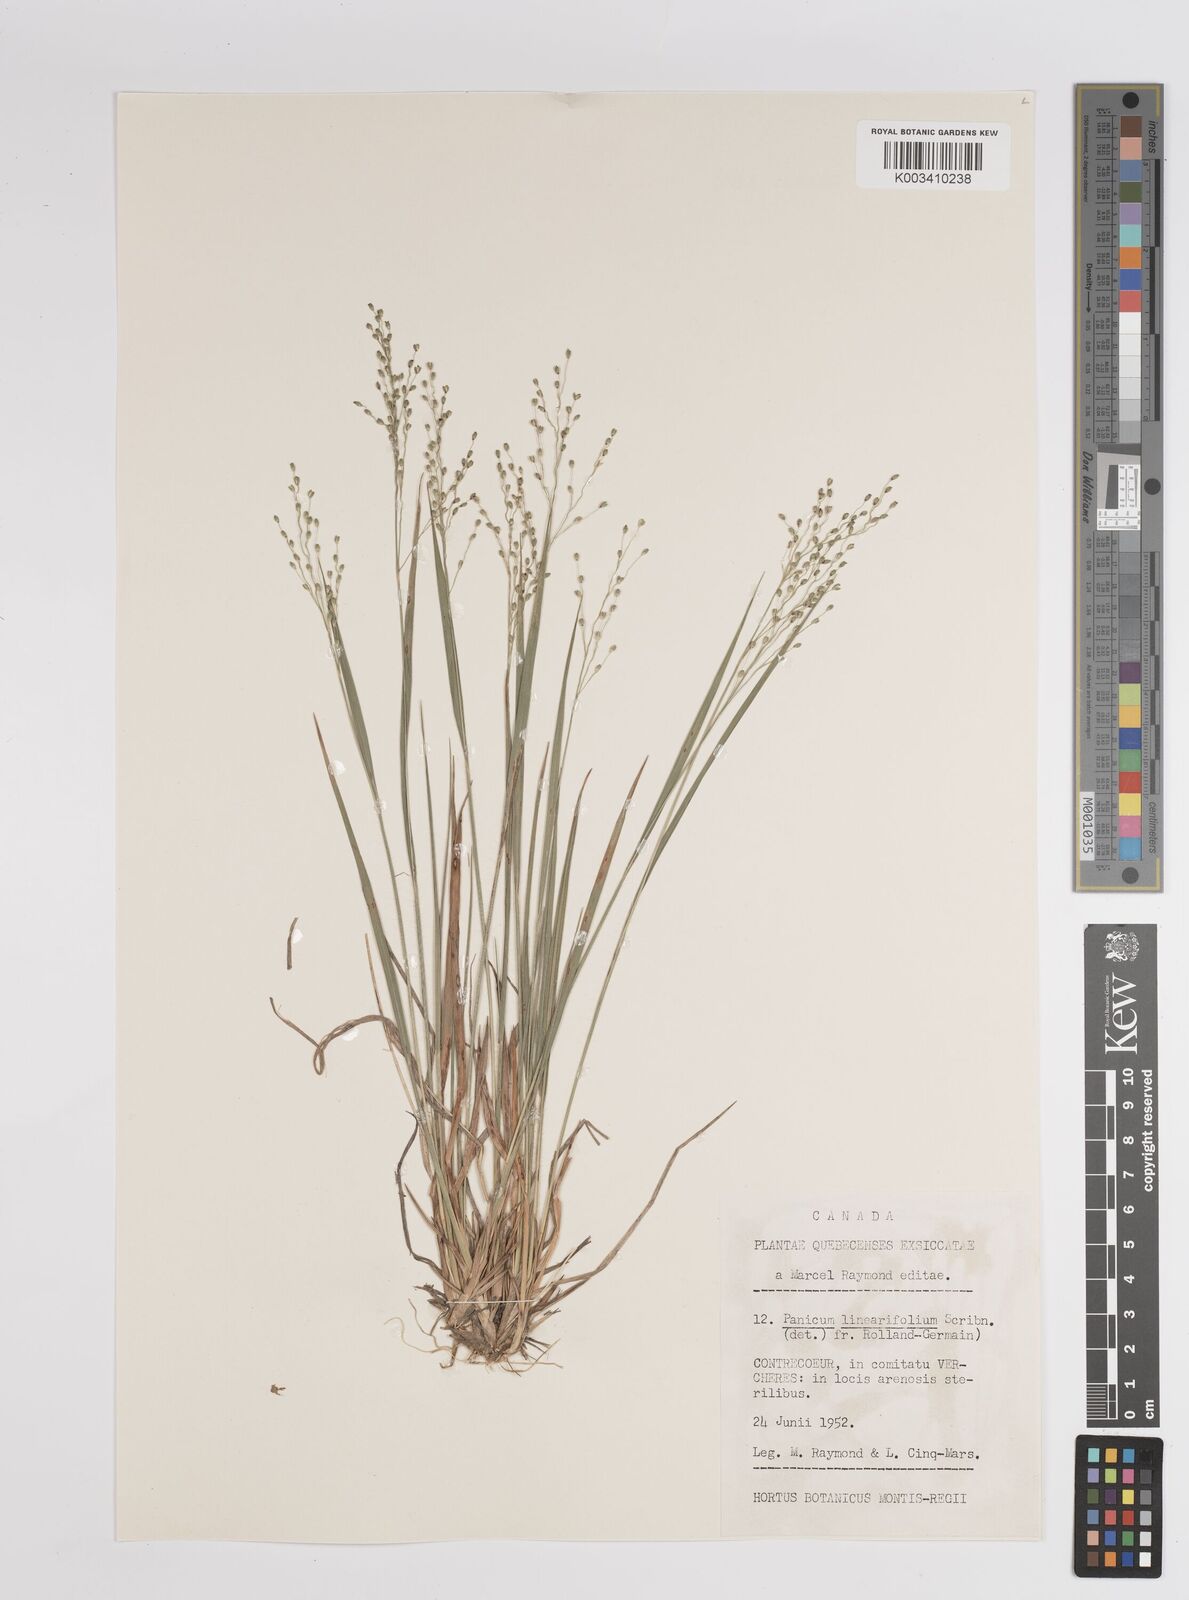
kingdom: Plantae
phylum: Tracheophyta
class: Liliopsida
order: Poales
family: Poaceae
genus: Dichanthelium
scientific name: Dichanthelium linearifolium
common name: Linear-leaved panicgrass
